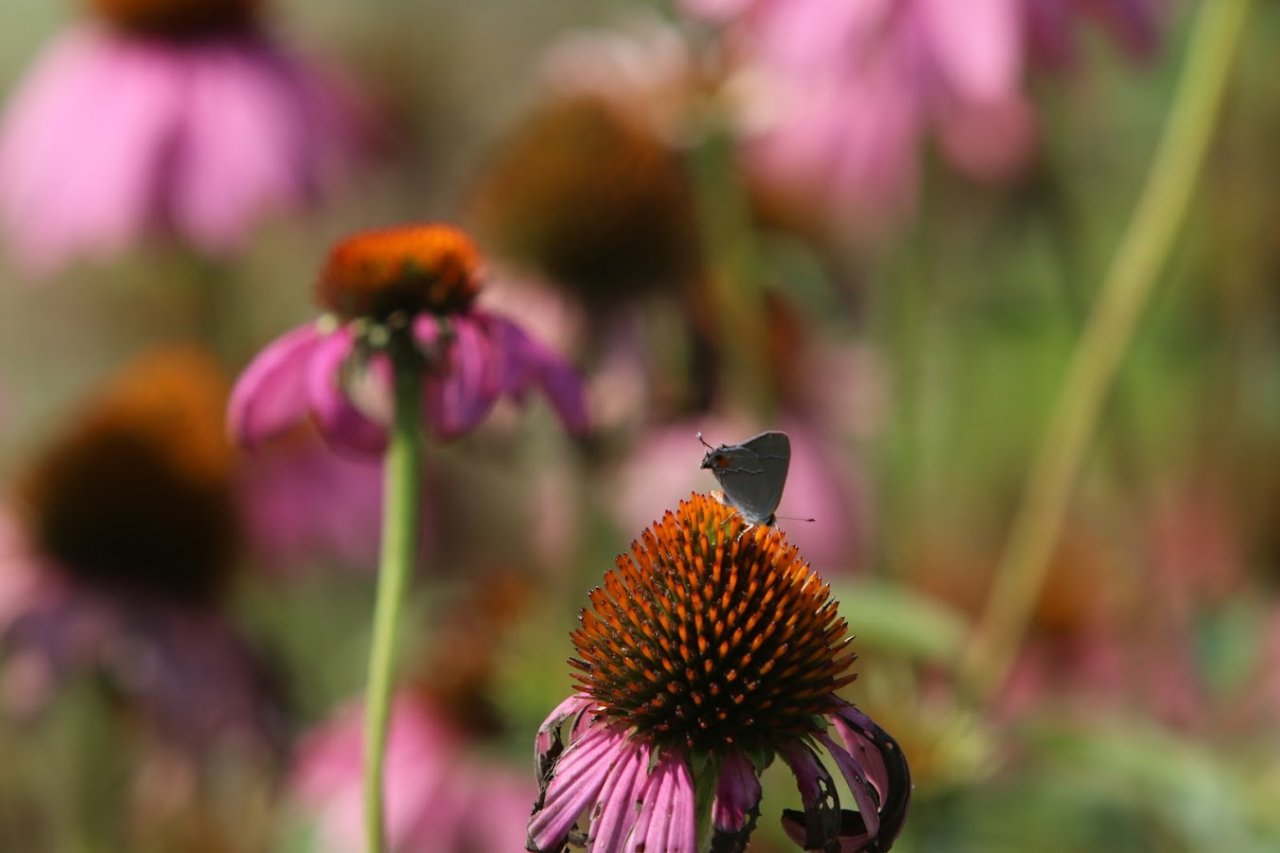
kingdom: Animalia
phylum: Arthropoda
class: Insecta
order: Lepidoptera
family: Lycaenidae
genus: Strymon
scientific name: Strymon melinus
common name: Gray Hairstreak
